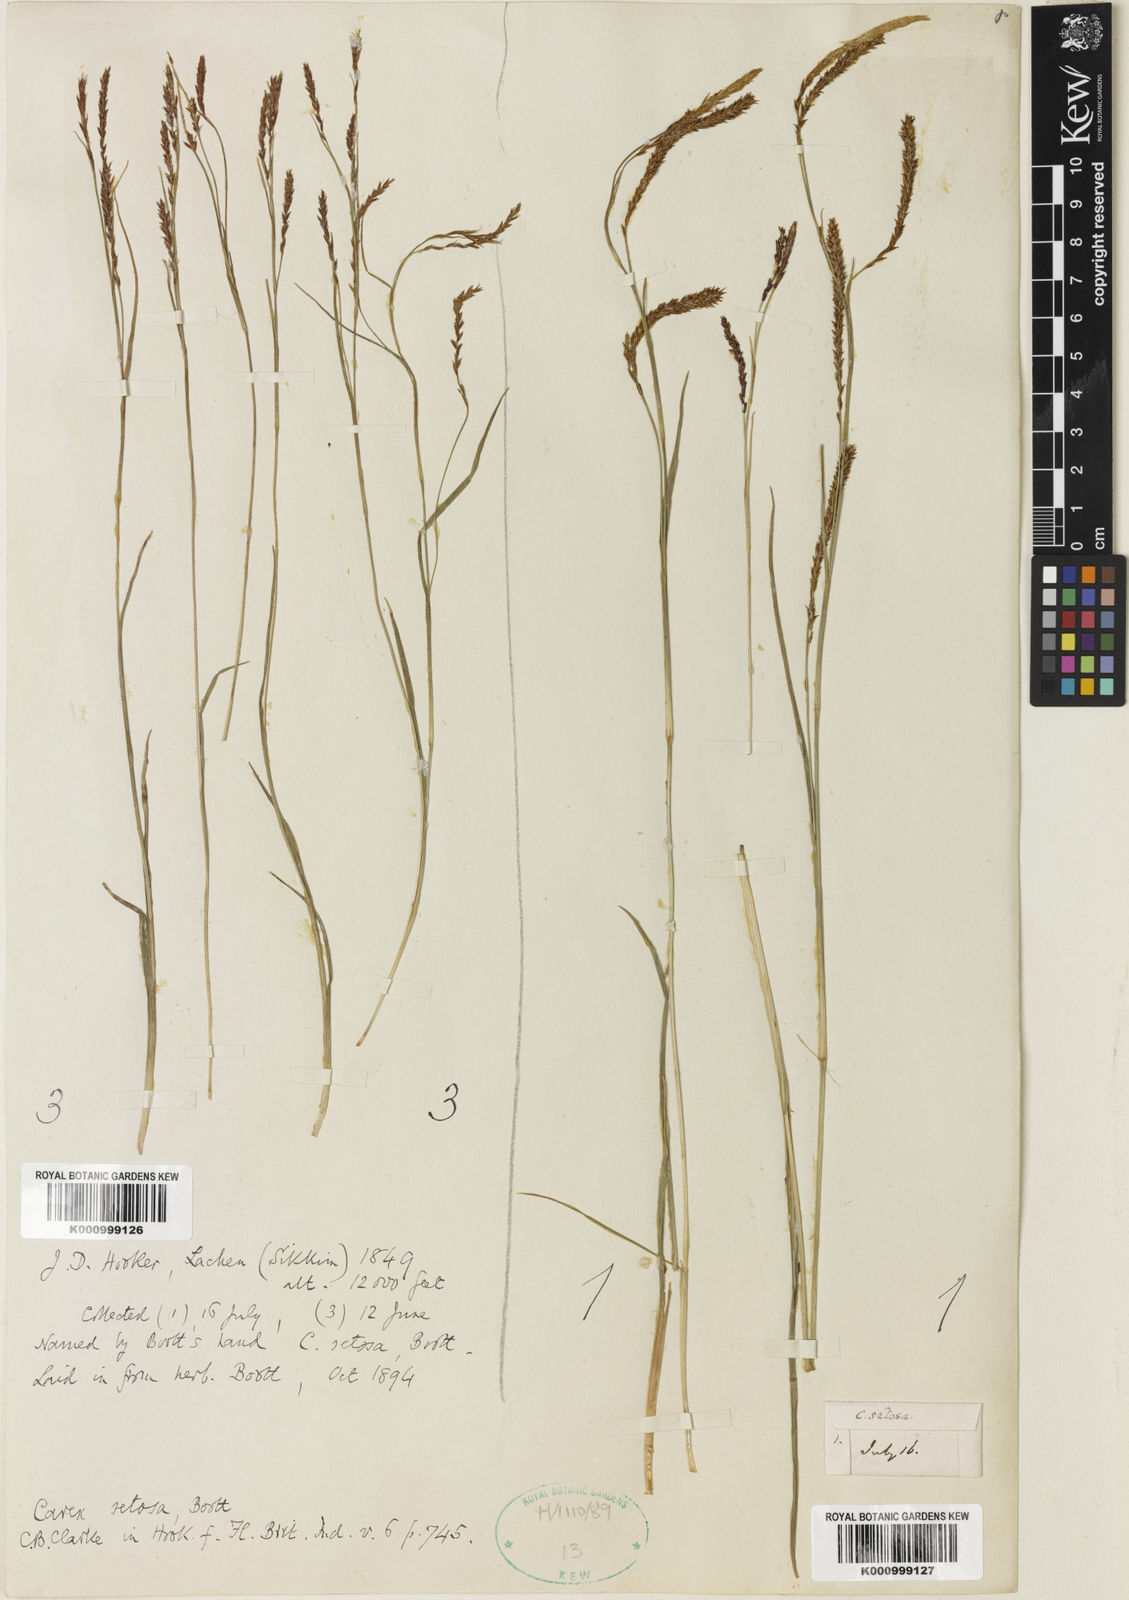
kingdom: Plantae
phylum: Tracheophyta
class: Liliopsida
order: Poales
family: Cyperaceae
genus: Carex
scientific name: Carex setosa
